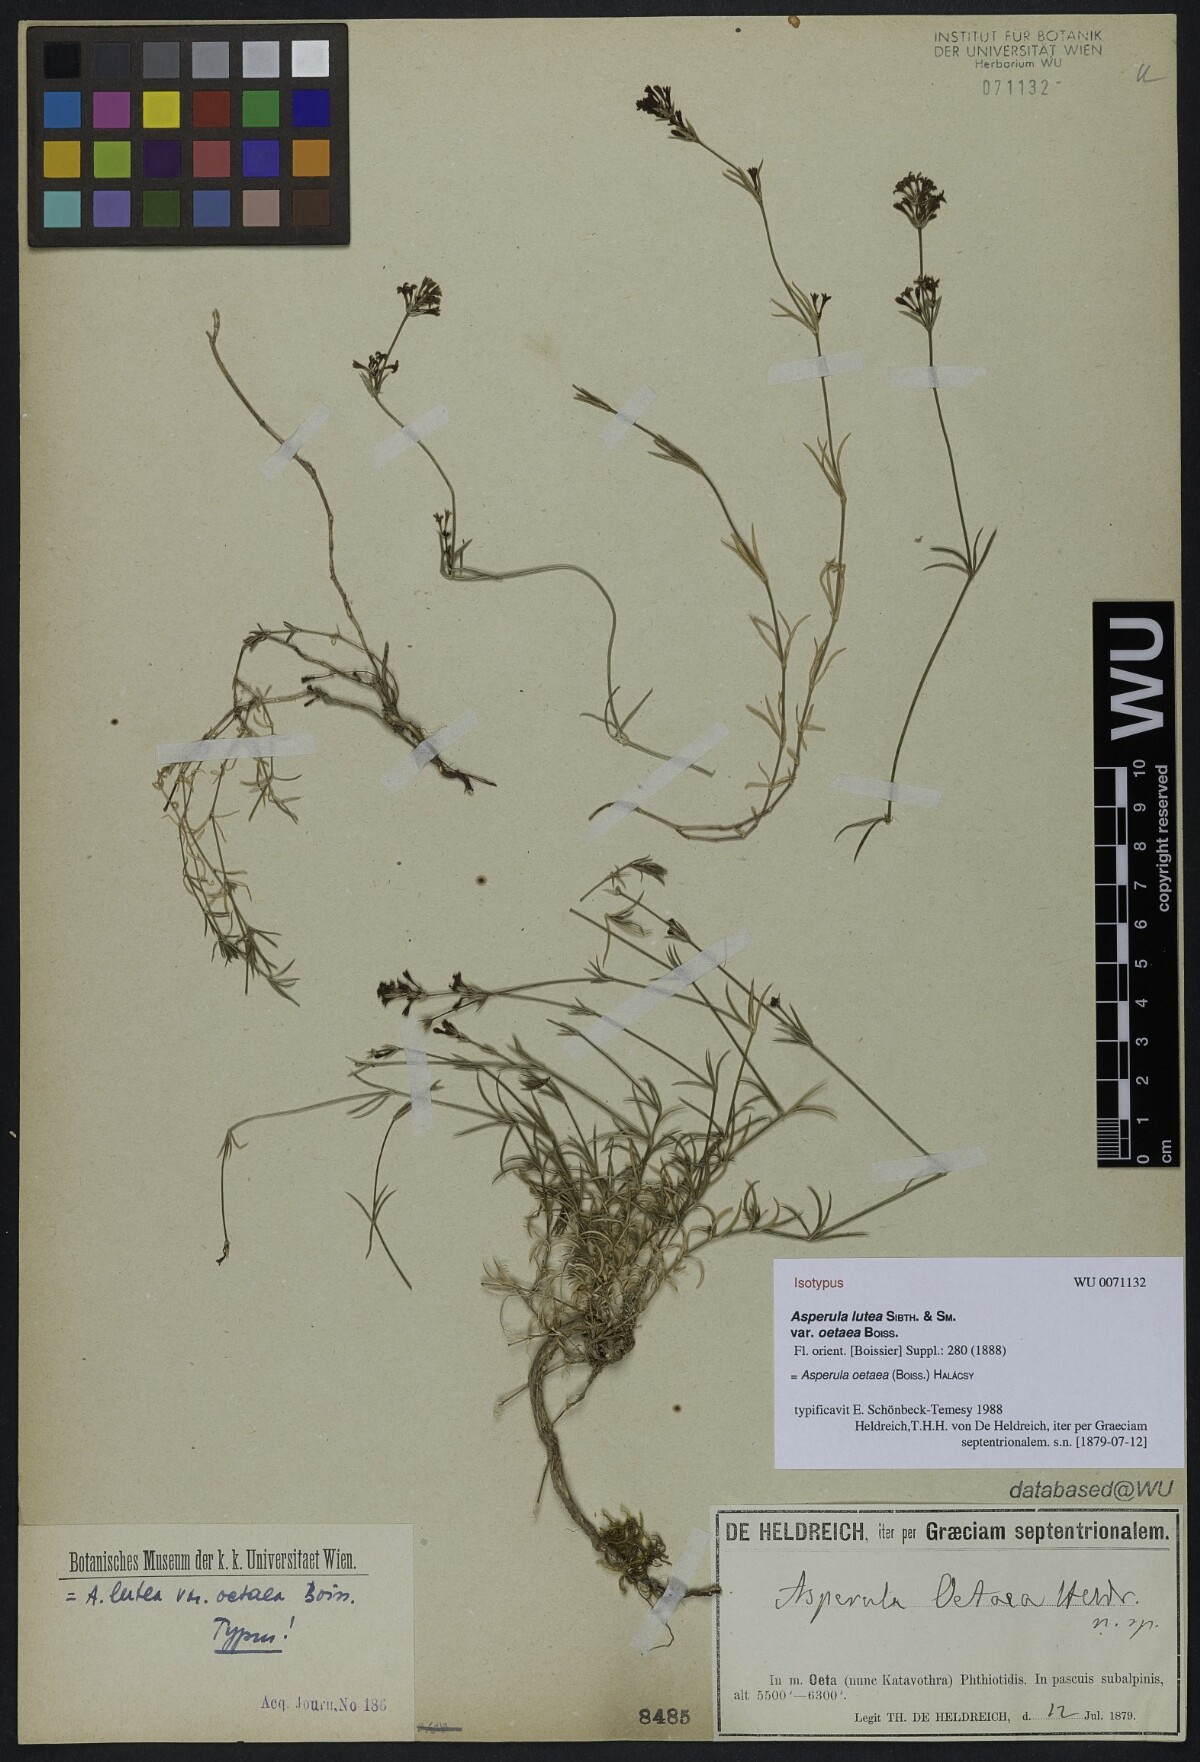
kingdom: Plantae
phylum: Tracheophyta
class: Magnoliopsida
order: Gentianales
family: Rubiaceae
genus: Cynanchica
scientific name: Cynanchica oetaea
